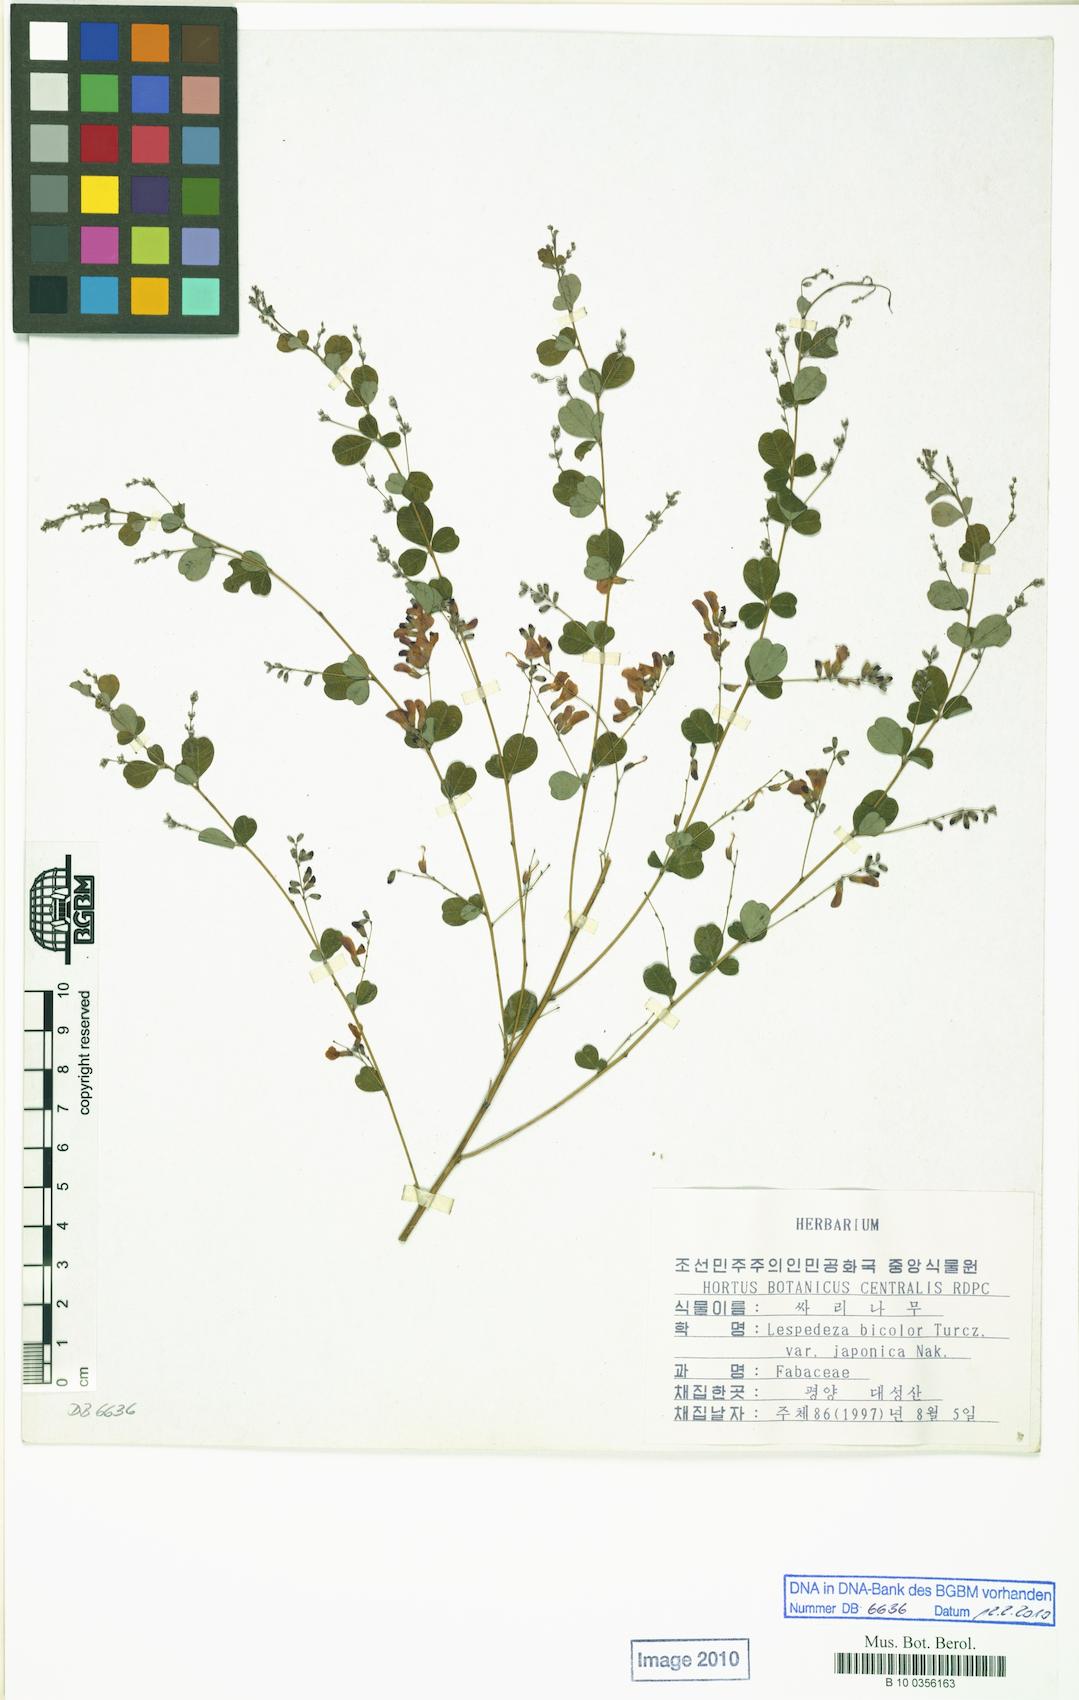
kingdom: Plantae
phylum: Tracheophyta
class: Magnoliopsida
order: Fabales
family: Fabaceae
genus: Lespedeza
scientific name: Lespedeza bicolor
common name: Shrub lespedeza
